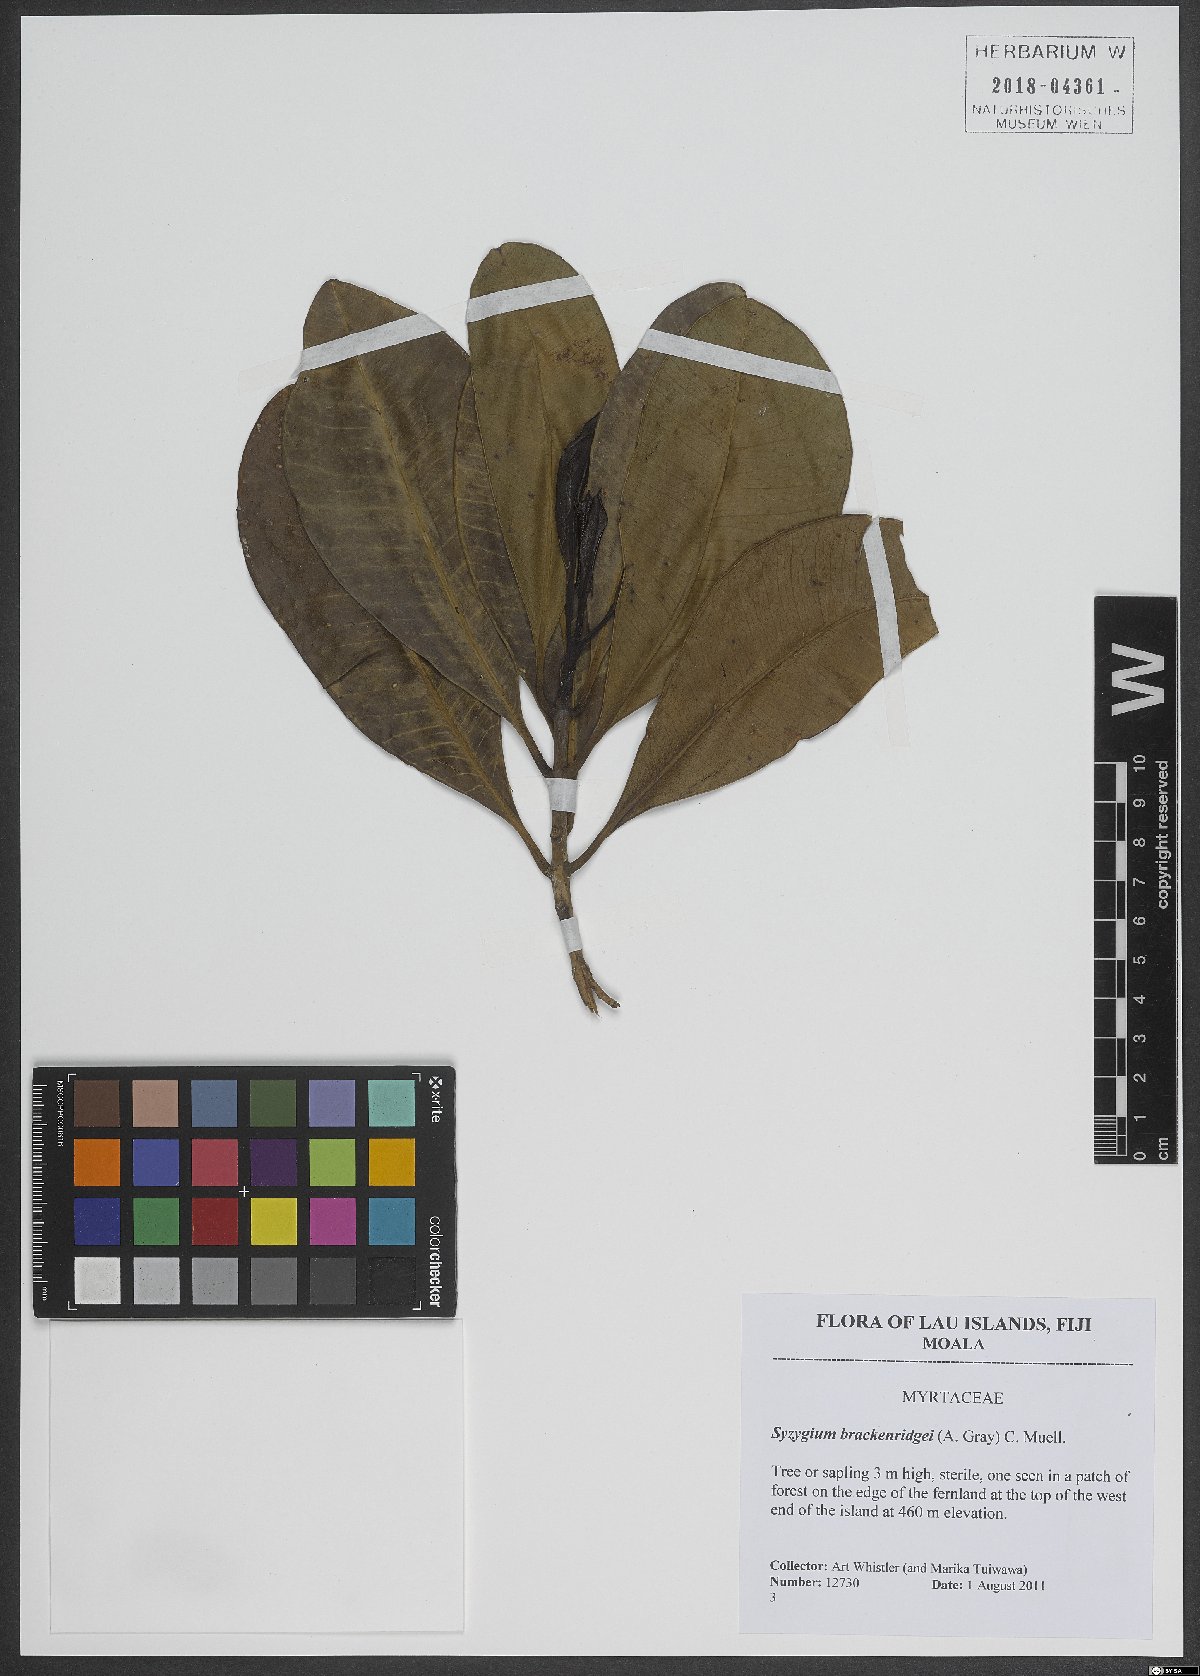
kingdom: Plantae
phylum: Tracheophyta
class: Magnoliopsida
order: Myrtales
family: Myrtaceae
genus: Syzygium
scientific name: Syzygium brackenridgei
